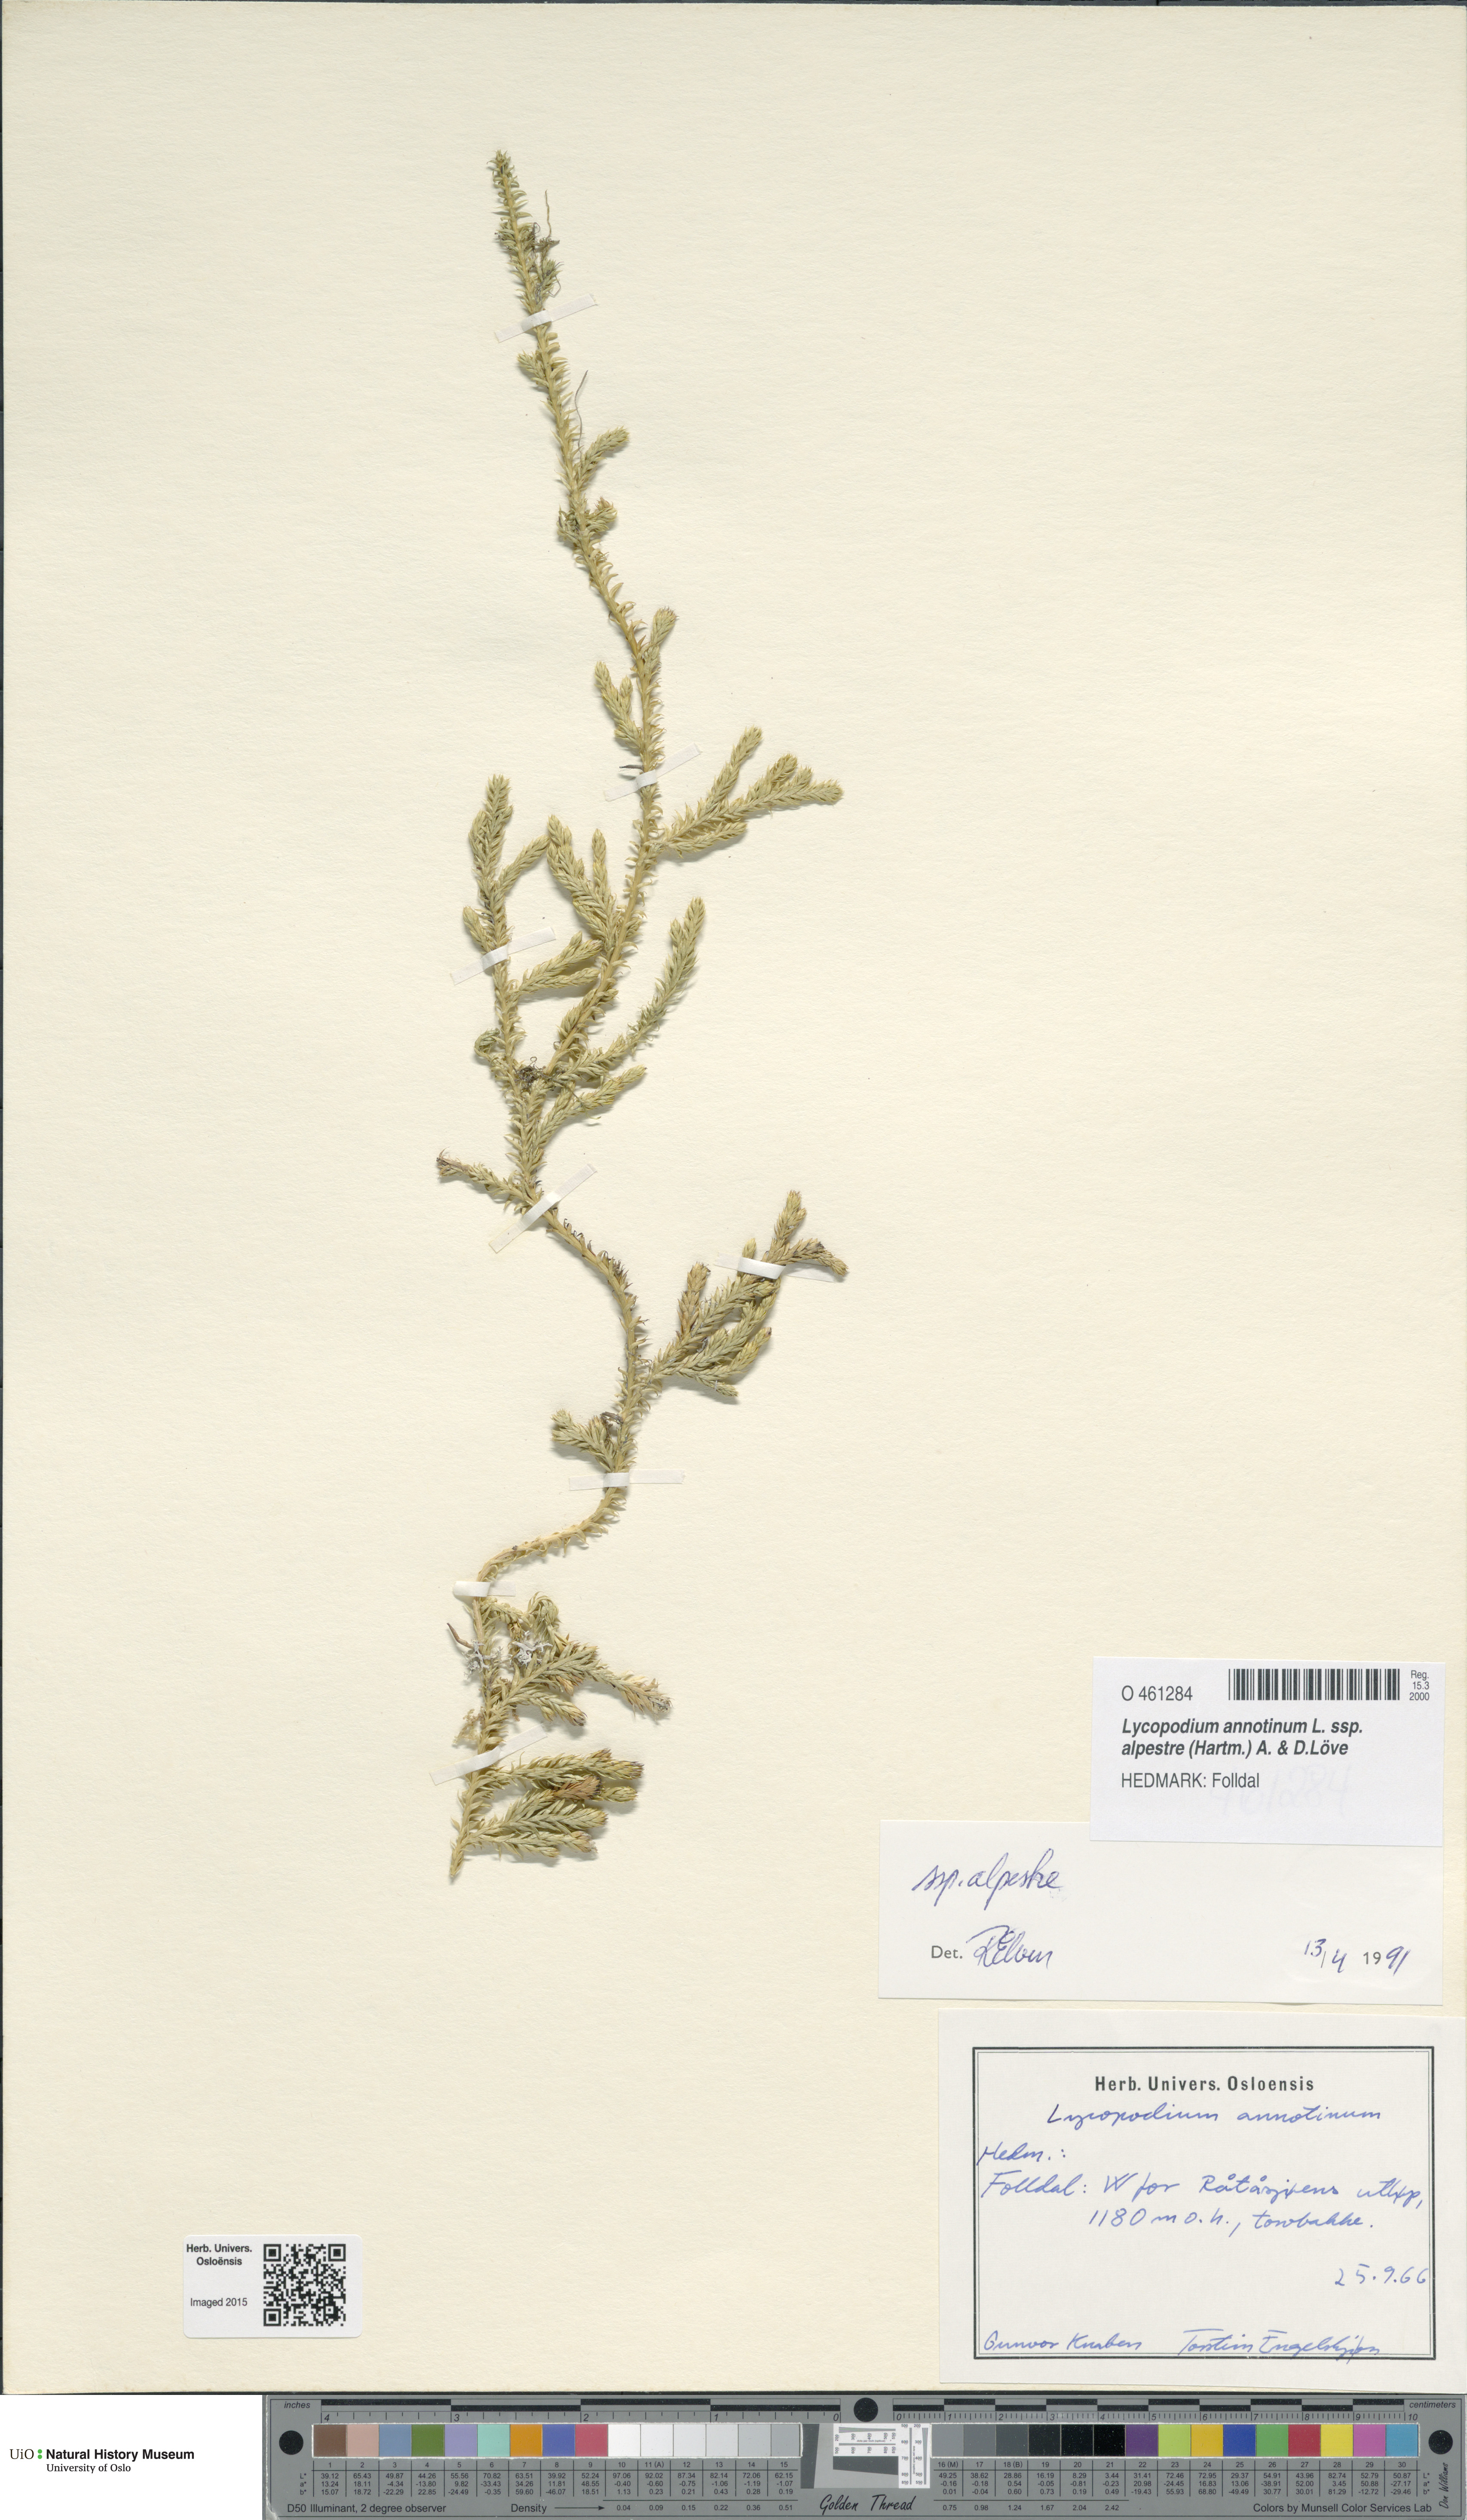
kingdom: Plantae
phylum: Tracheophyta
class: Lycopodiopsida
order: Lycopodiales
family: Lycopodiaceae
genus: Spinulum
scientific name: Spinulum annotinum
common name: Interrupted club-moss
